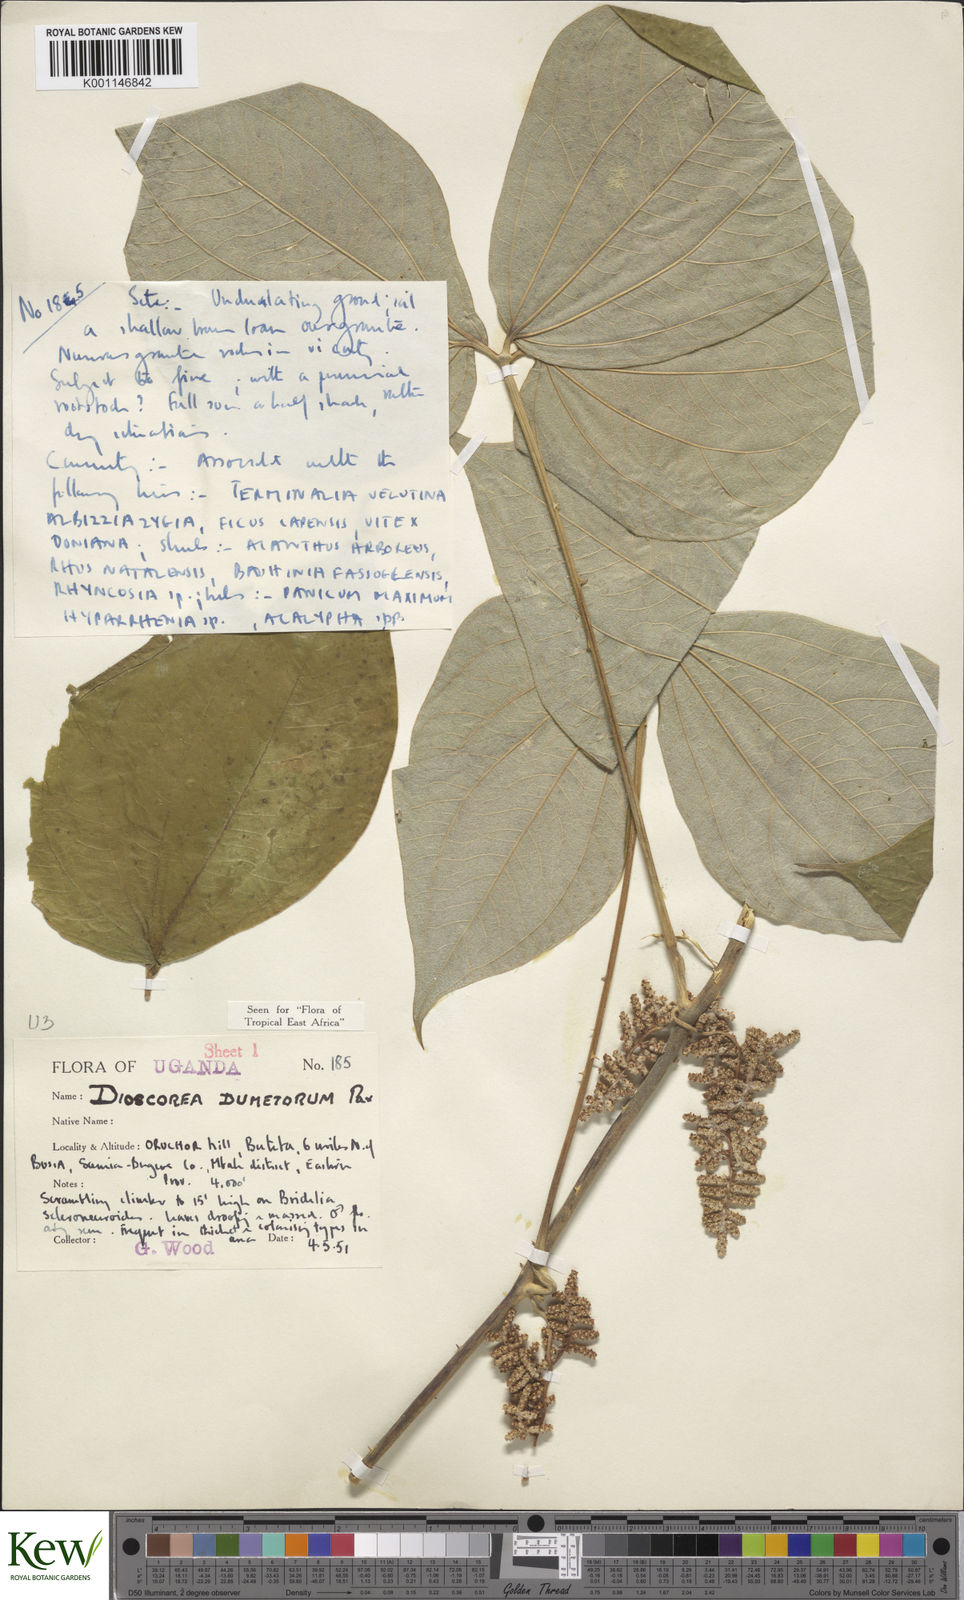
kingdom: Plantae
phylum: Tracheophyta
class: Liliopsida
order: Dioscoreales
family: Dioscoreaceae
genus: Dioscorea
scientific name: Dioscorea dumetorum
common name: African bitter yam
